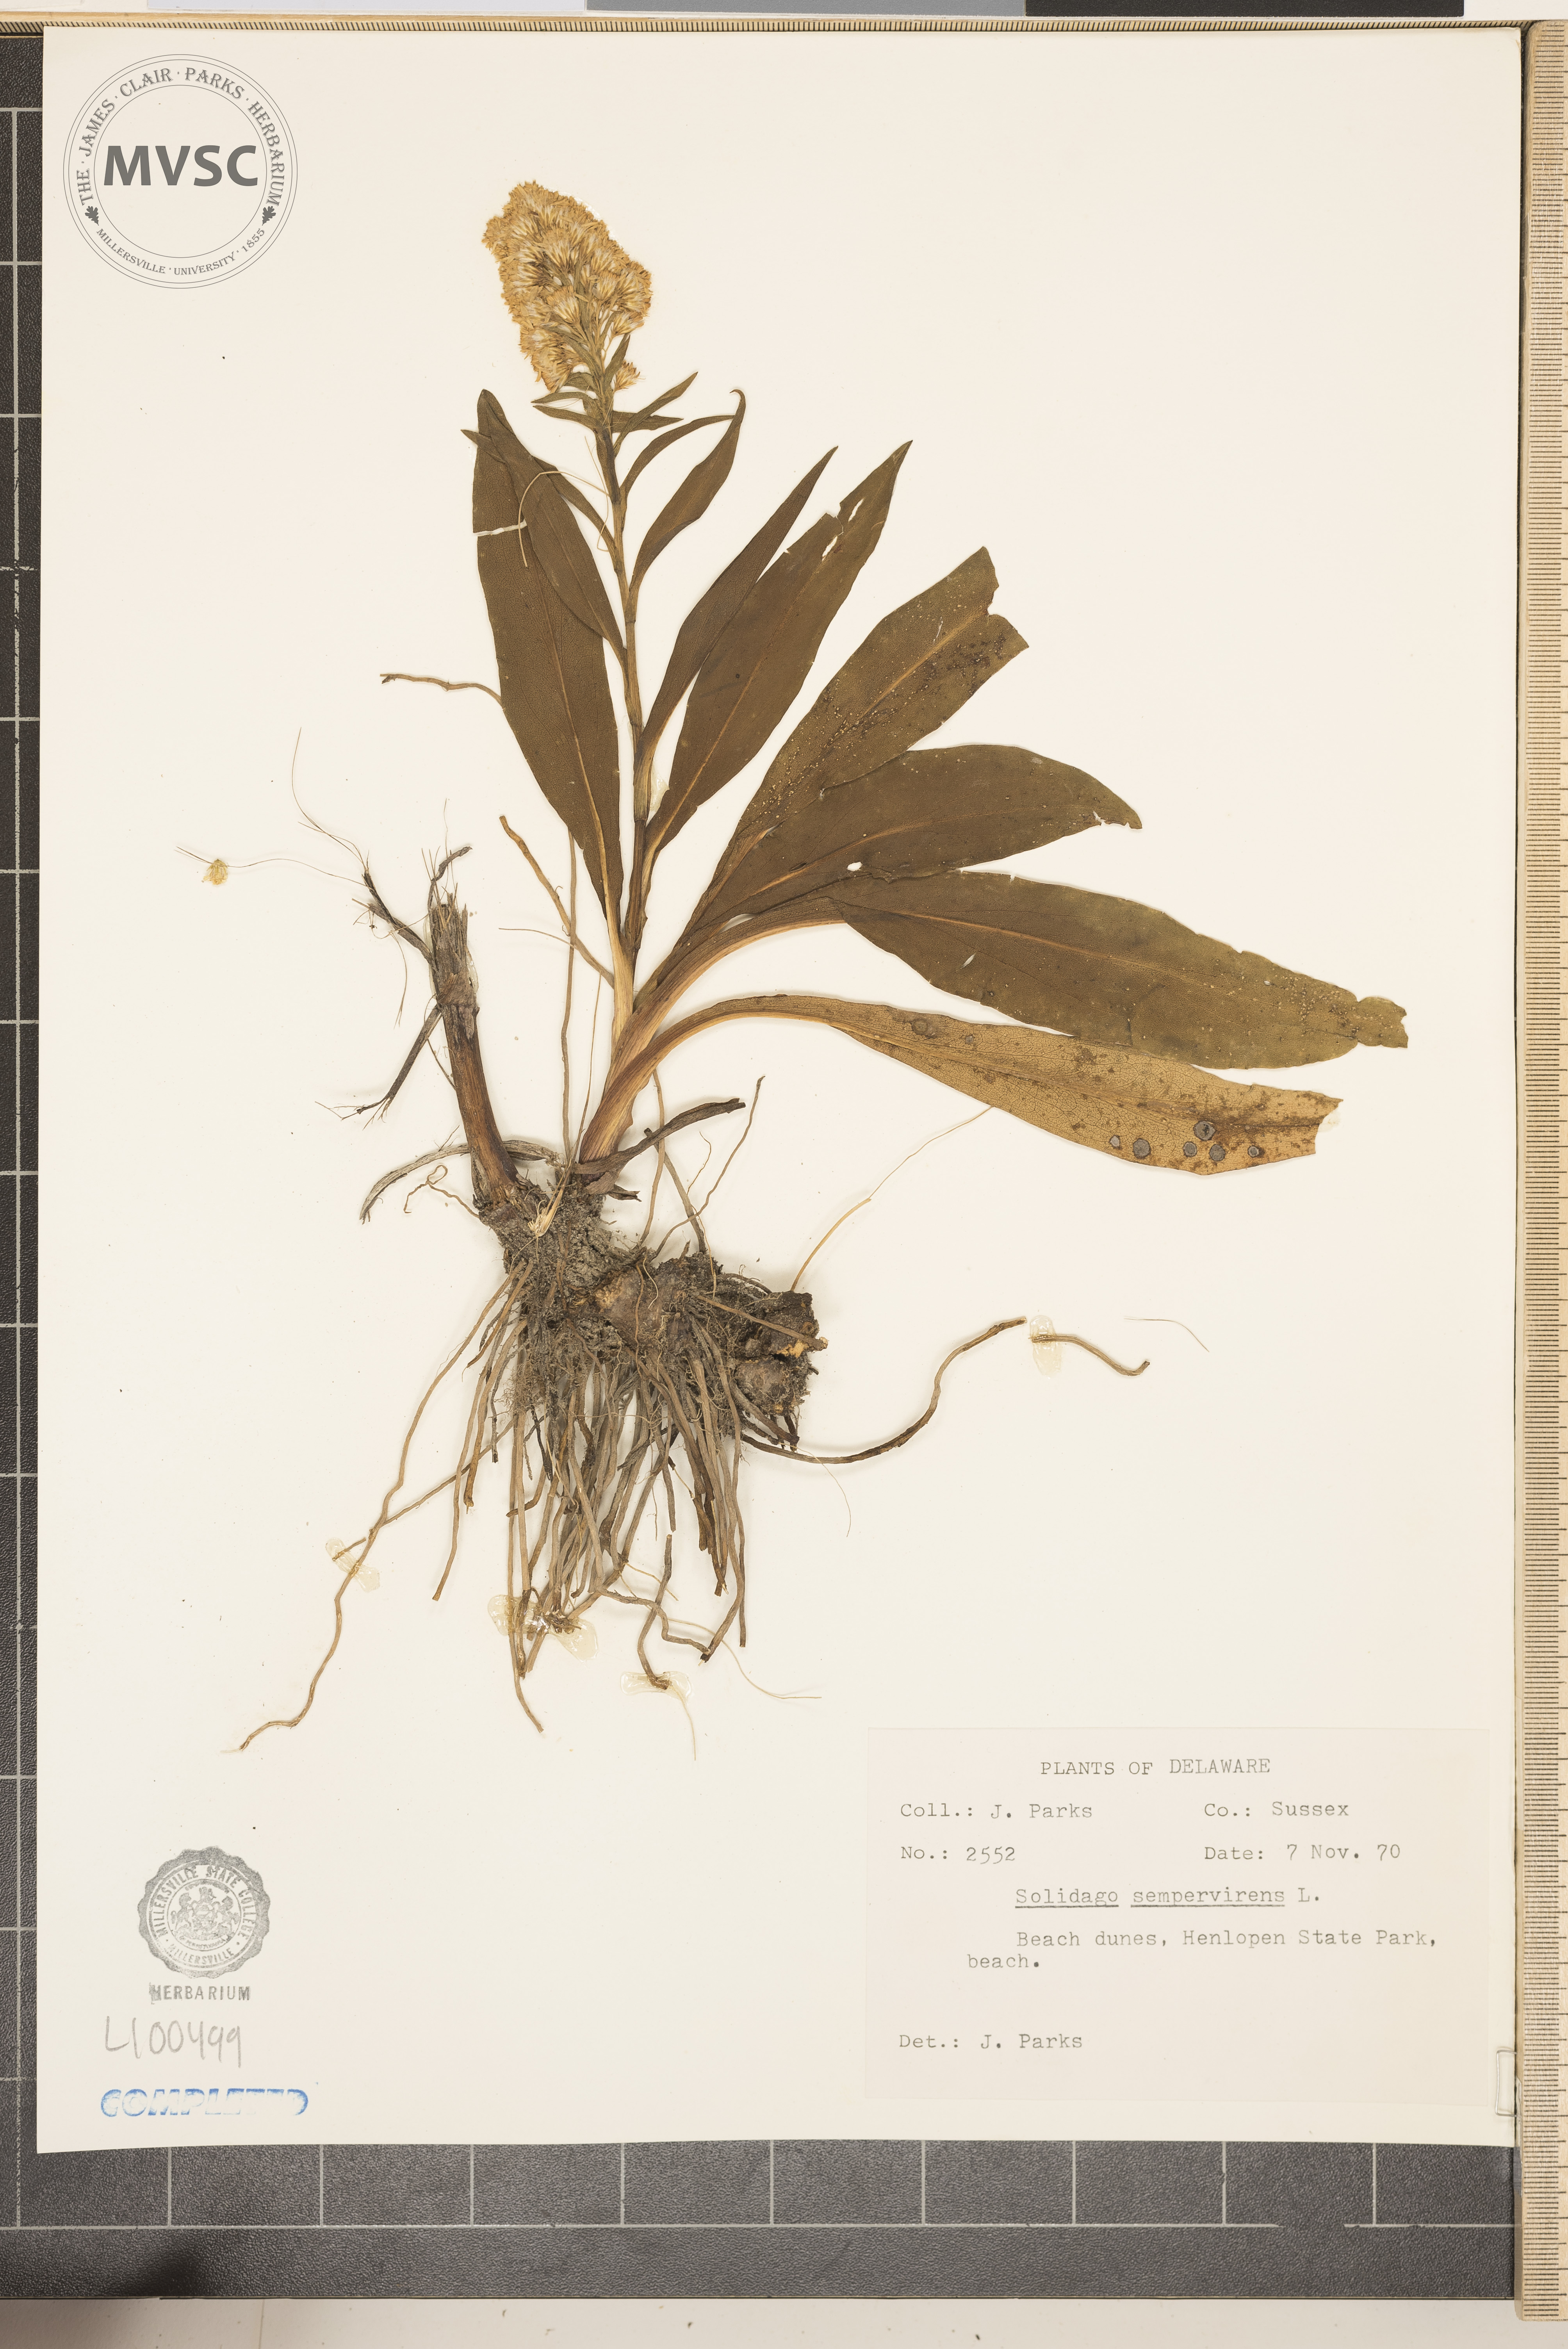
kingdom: Plantae
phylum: Tracheophyta
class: Magnoliopsida
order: Asterales
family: Asteraceae
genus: Solidago
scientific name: Solidago sempervirens
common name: goldenrod
